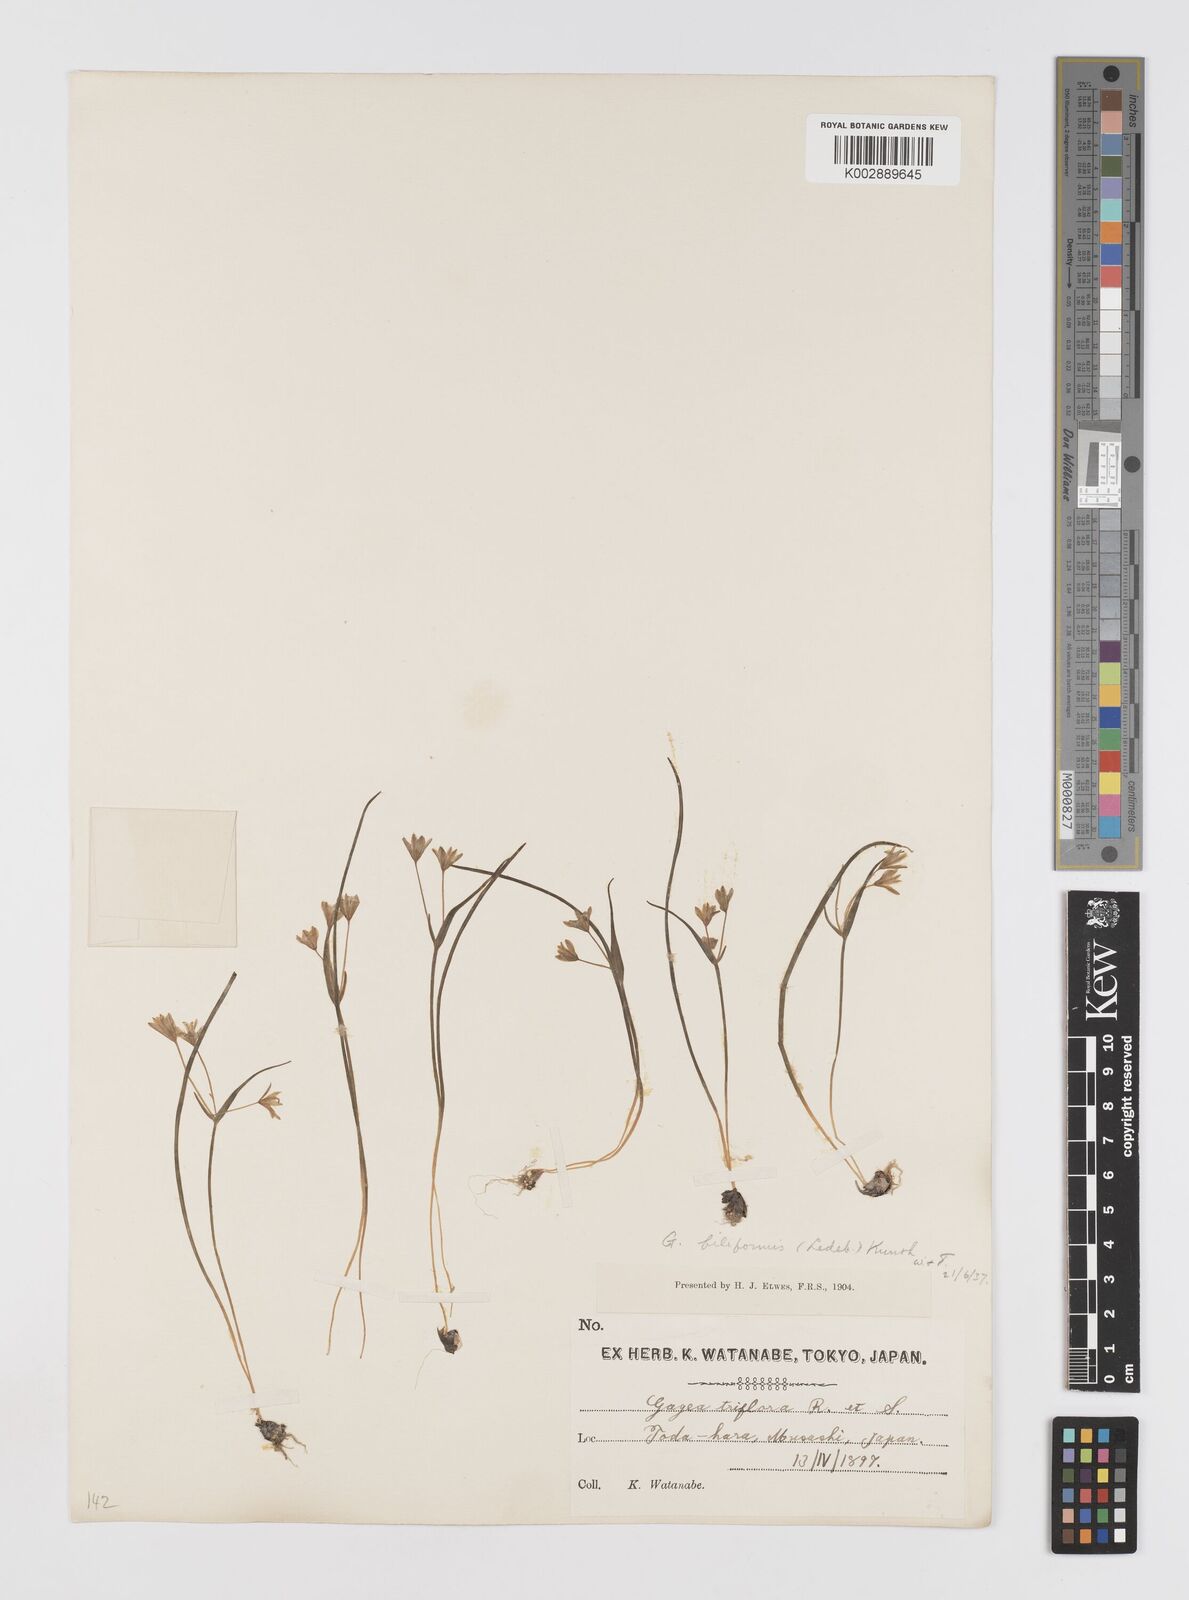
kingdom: Plantae
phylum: Tracheophyta
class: Liliopsida
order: Liliales
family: Liliaceae
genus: Gagea
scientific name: Gagea filiformis
